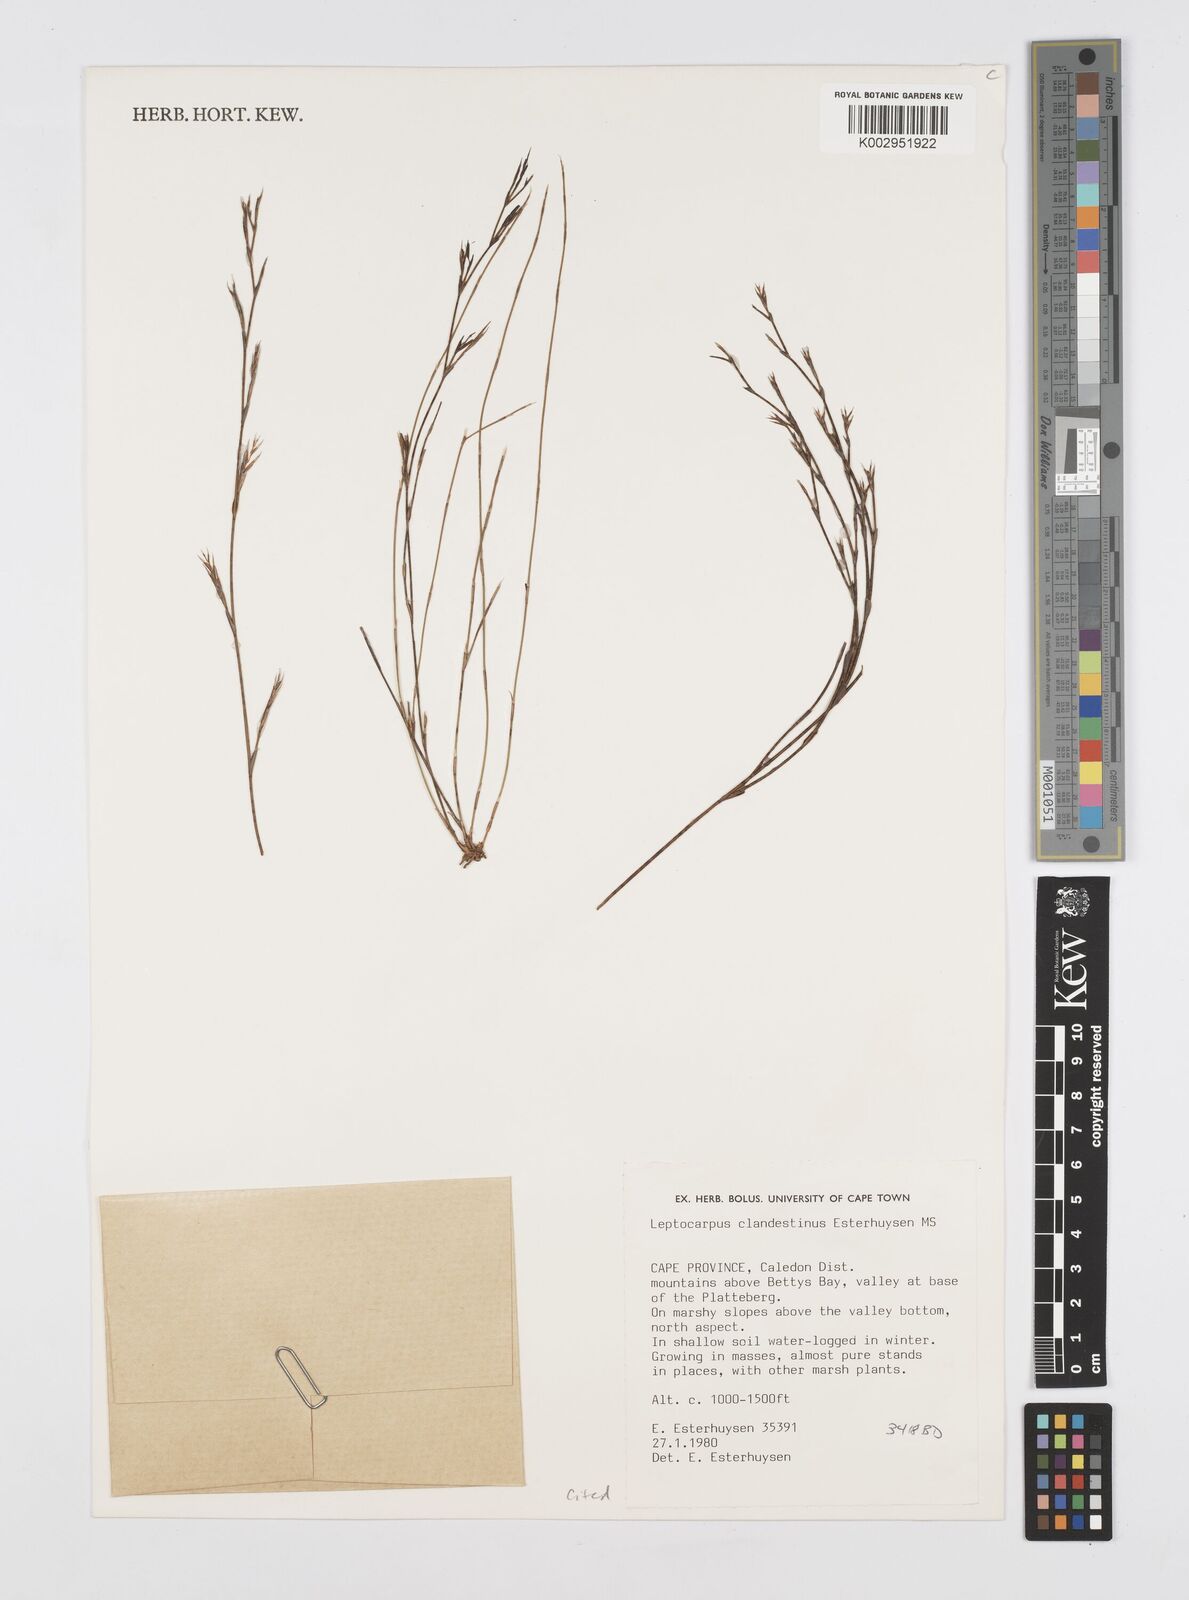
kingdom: Plantae
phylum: Tracheophyta
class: Liliopsida
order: Poales
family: Restionaceae
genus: Restio
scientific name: Restio clandestinus
